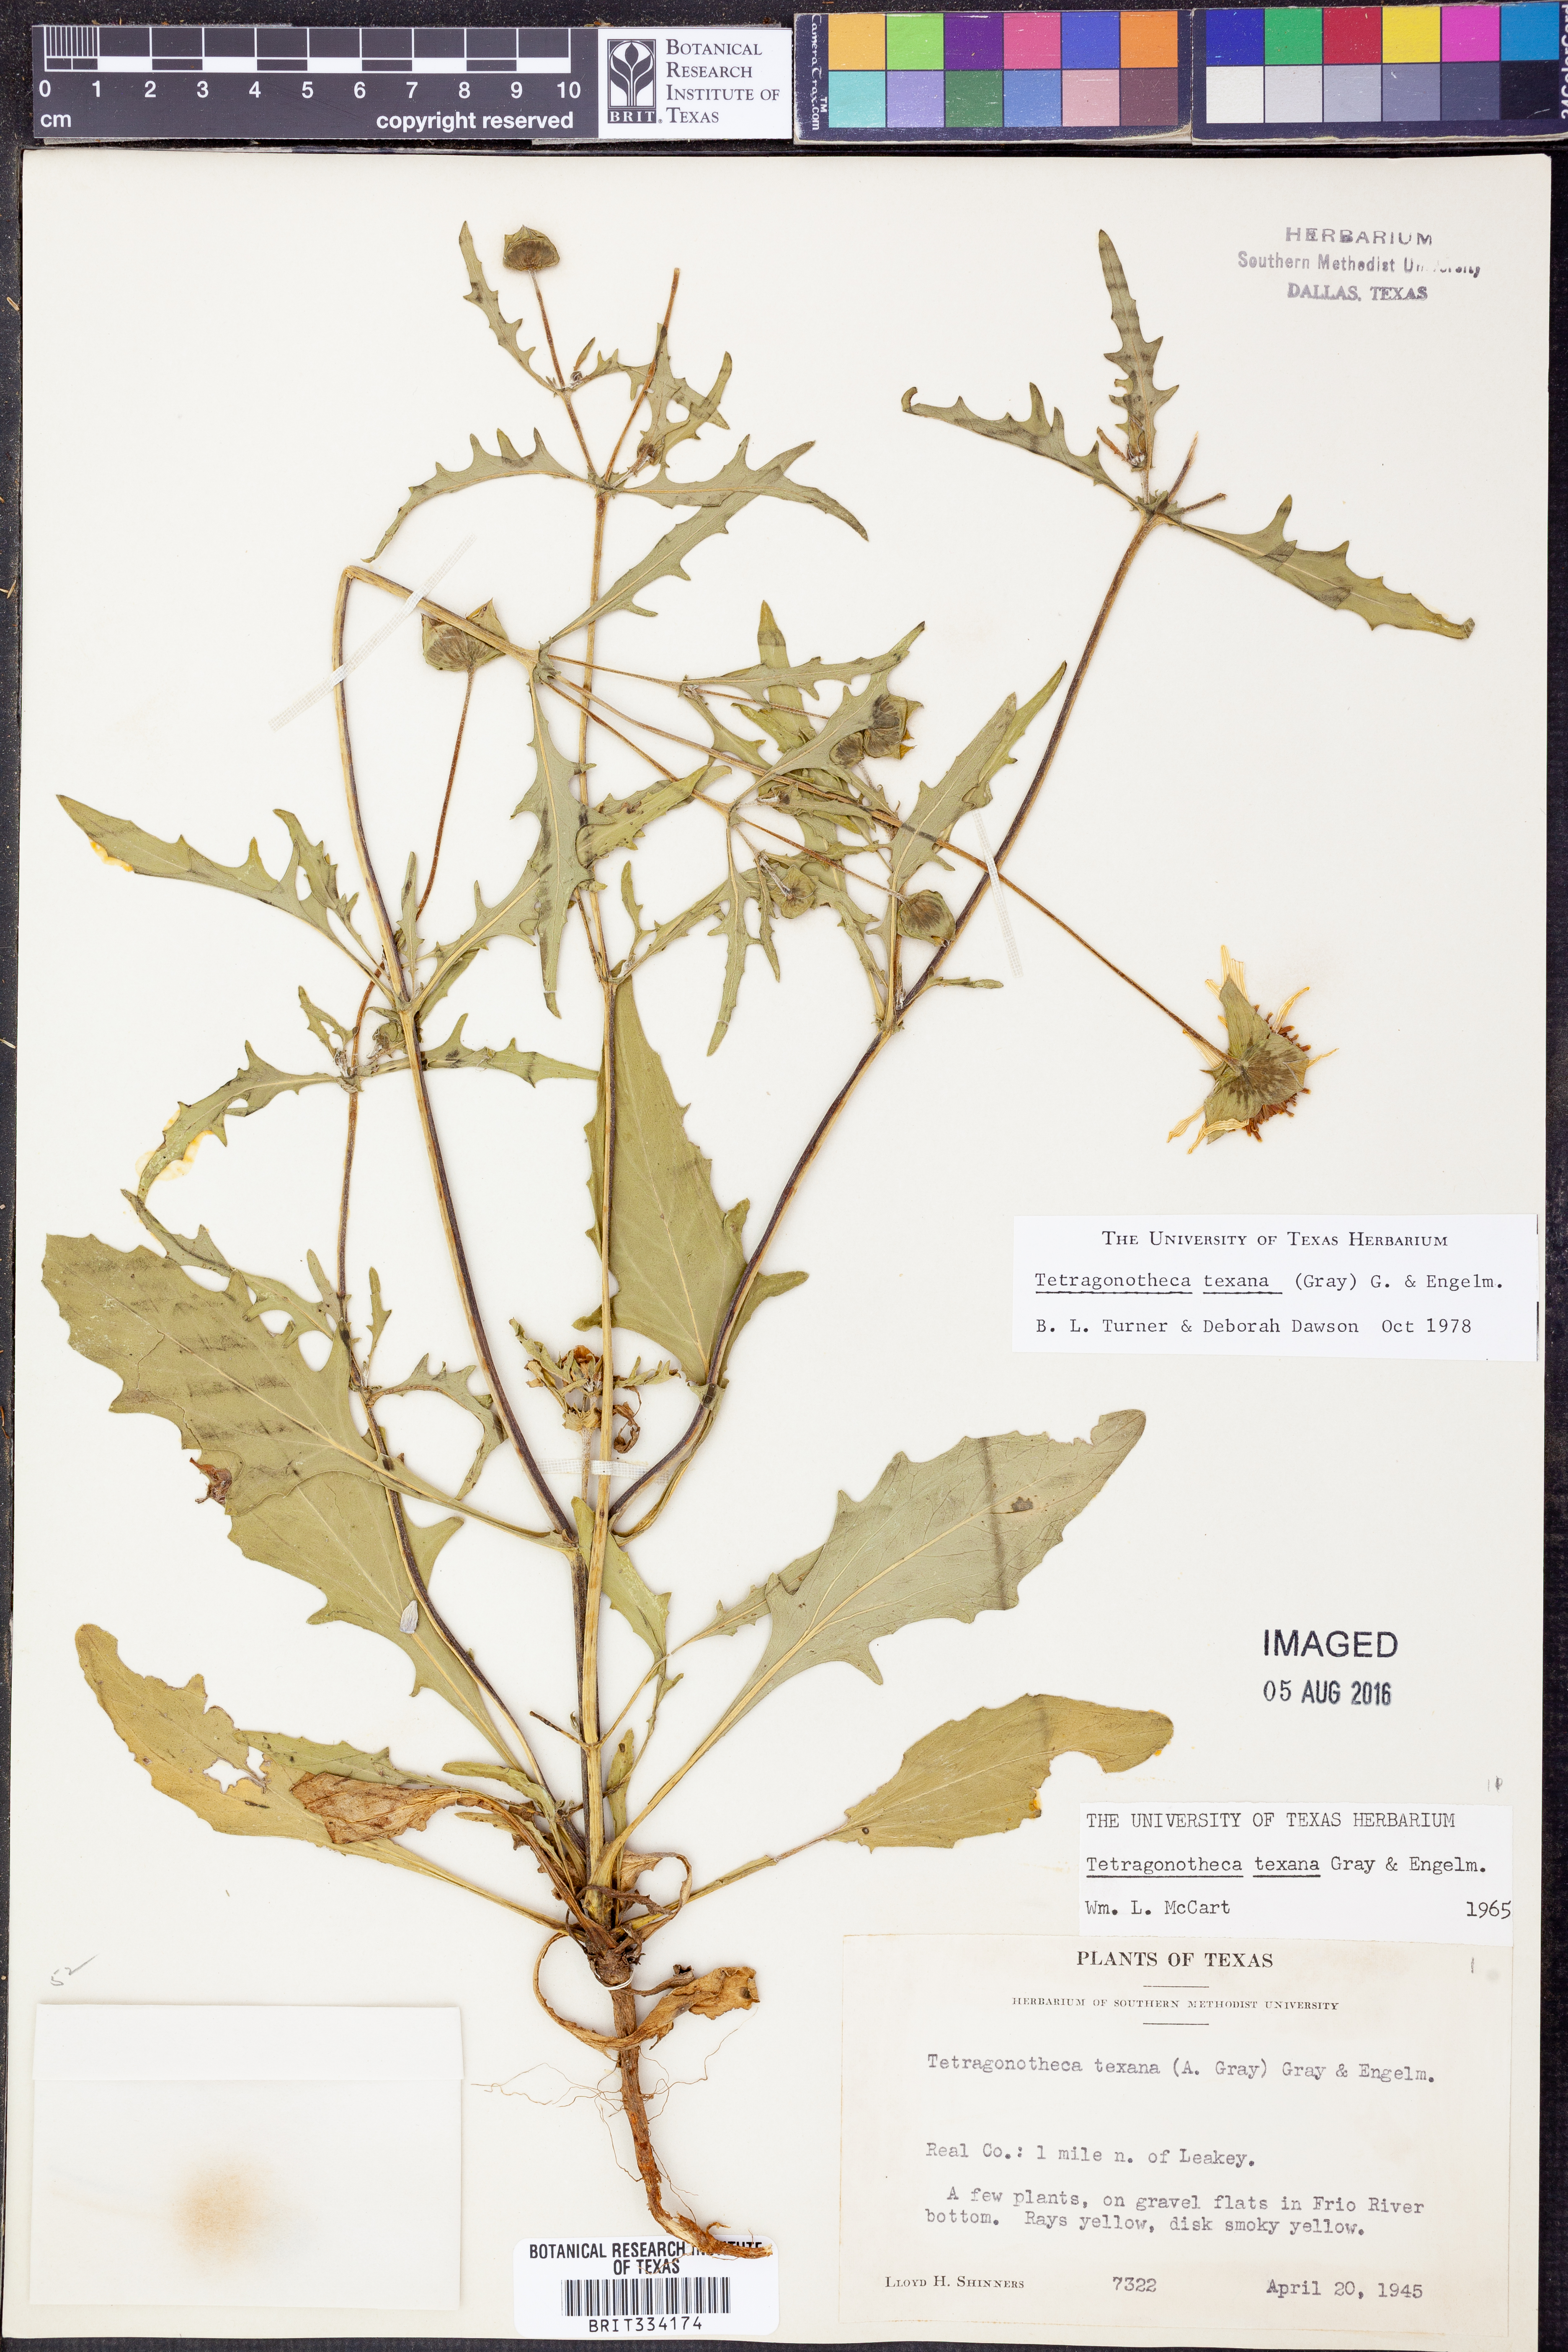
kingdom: Plantae
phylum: Tracheophyta
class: Magnoliopsida
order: Asterales
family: Asteraceae
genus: Tetragonotheca
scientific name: Tetragonotheca texana
